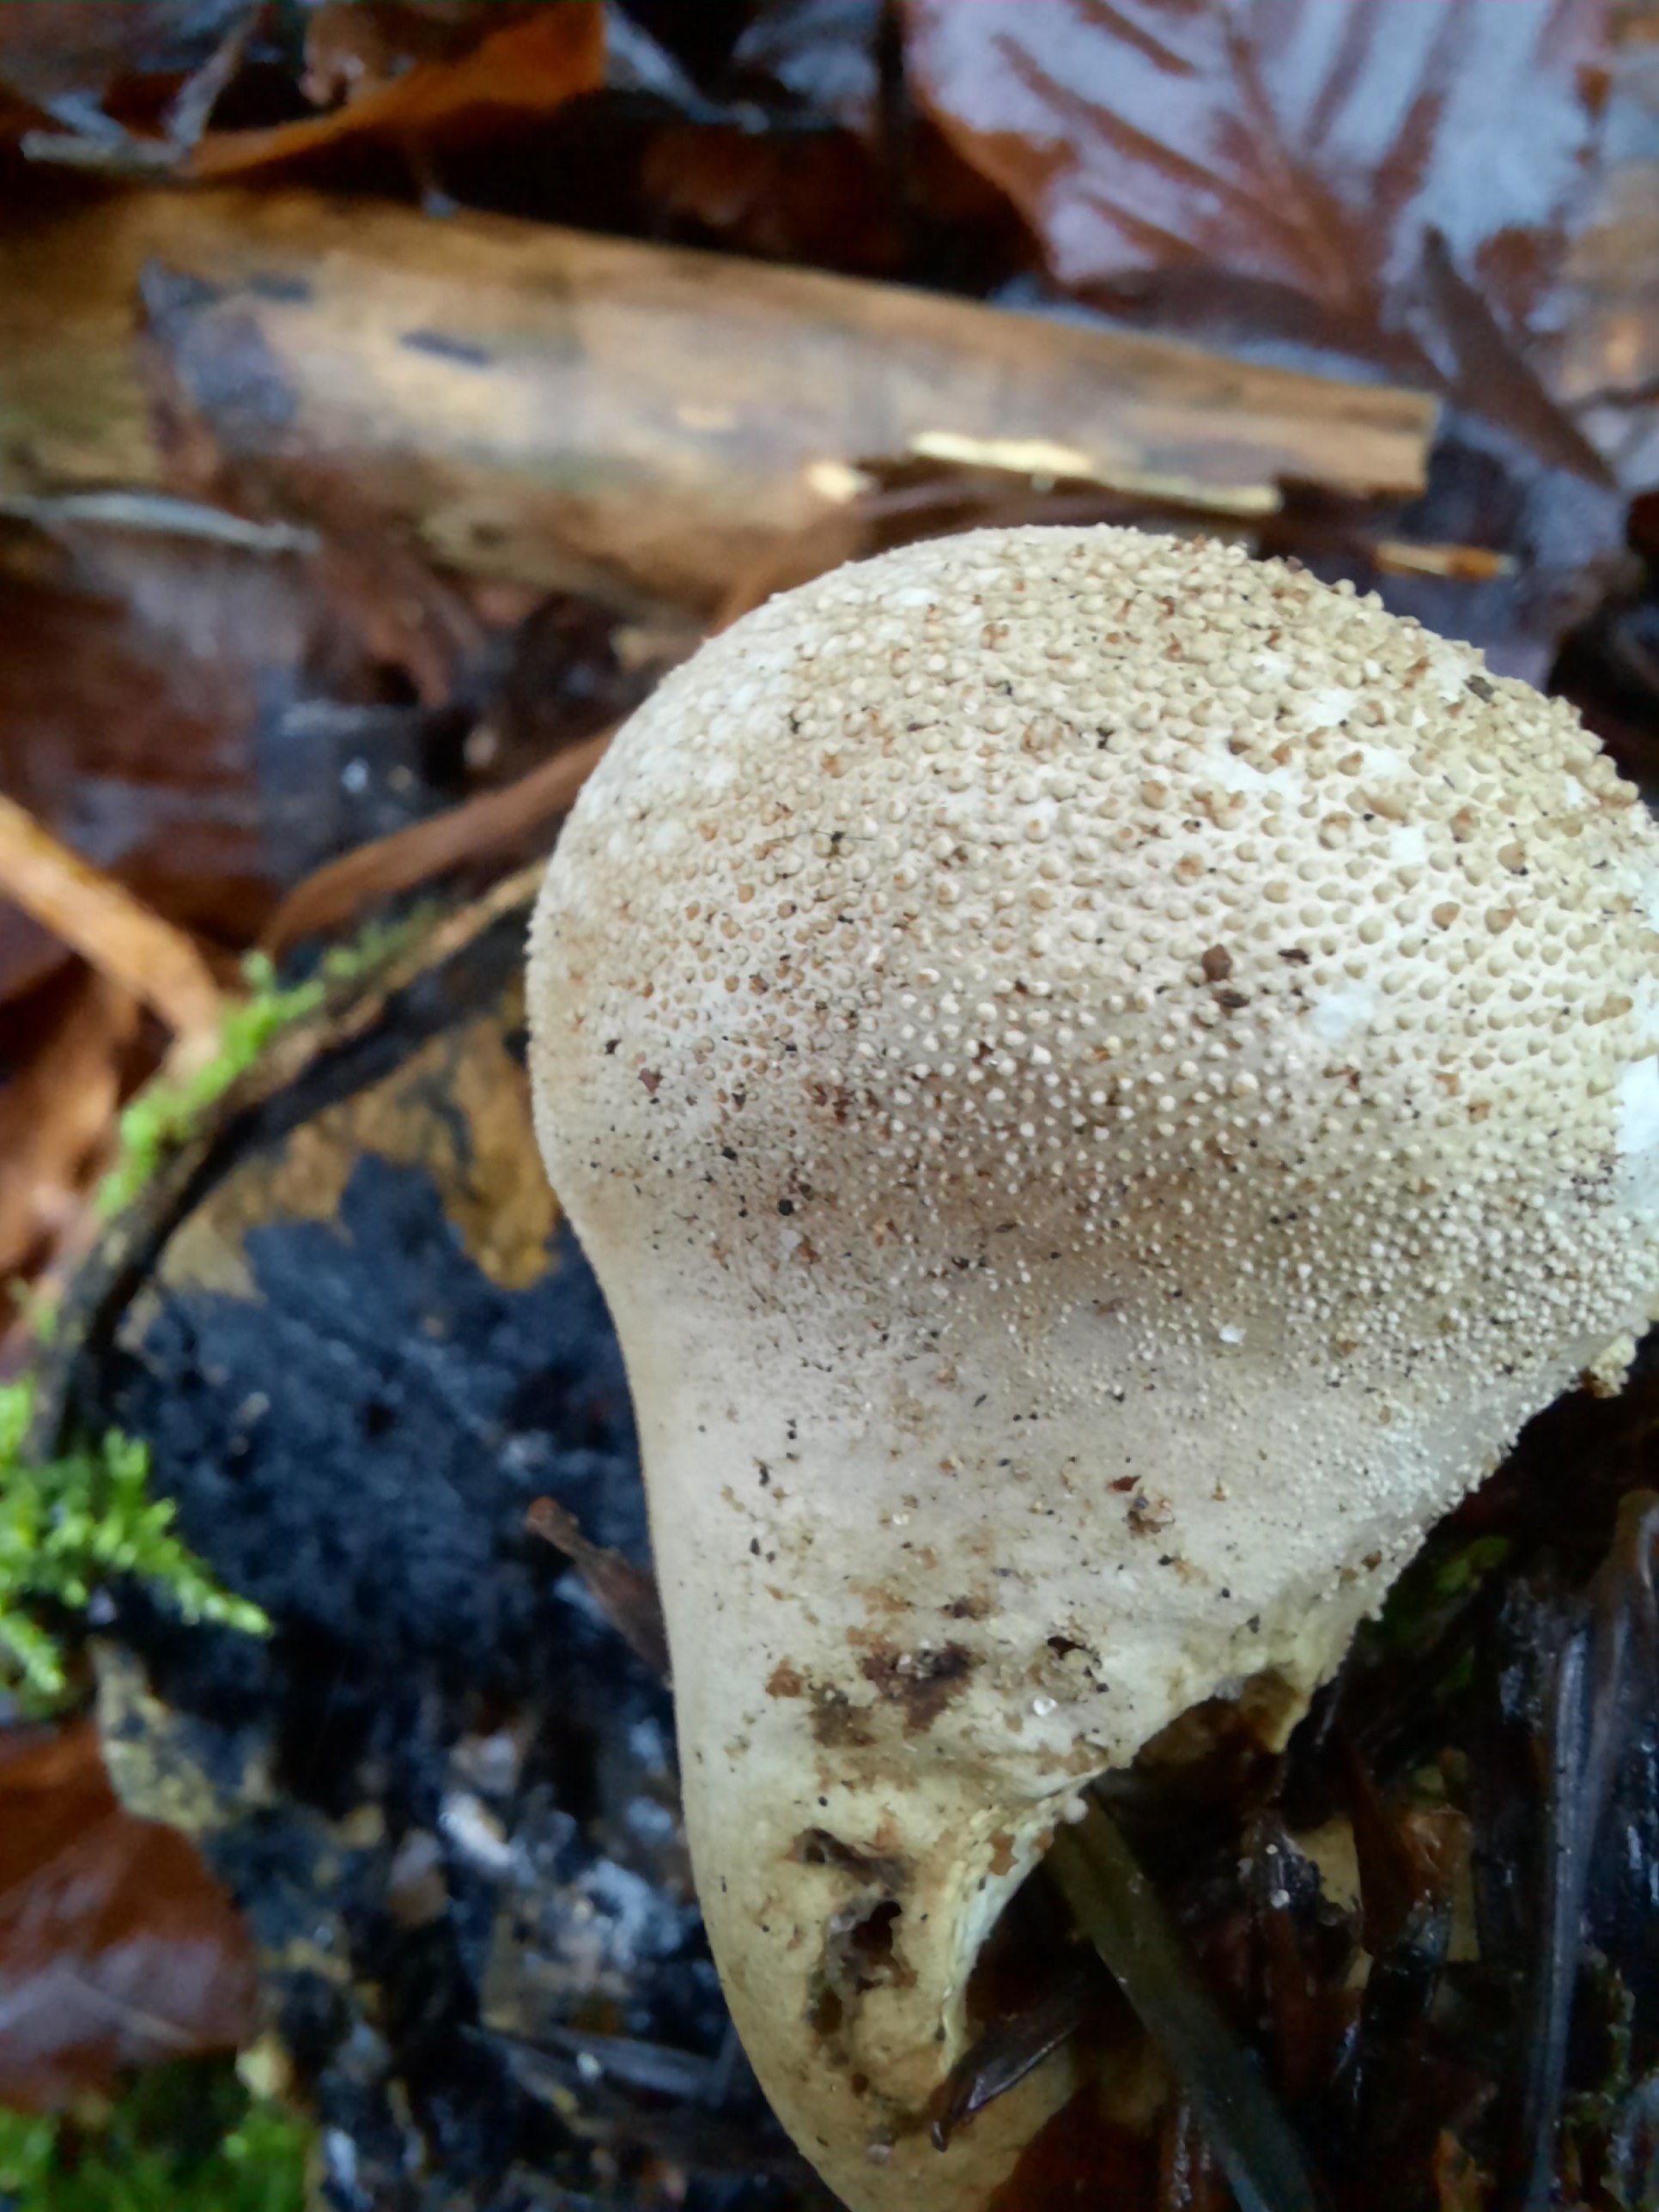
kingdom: Fungi
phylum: Basidiomycota
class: Agaricomycetes
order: Agaricales
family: Lycoperdaceae
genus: Lycoperdon
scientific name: Lycoperdon perlatum
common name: krystal-støvbold
